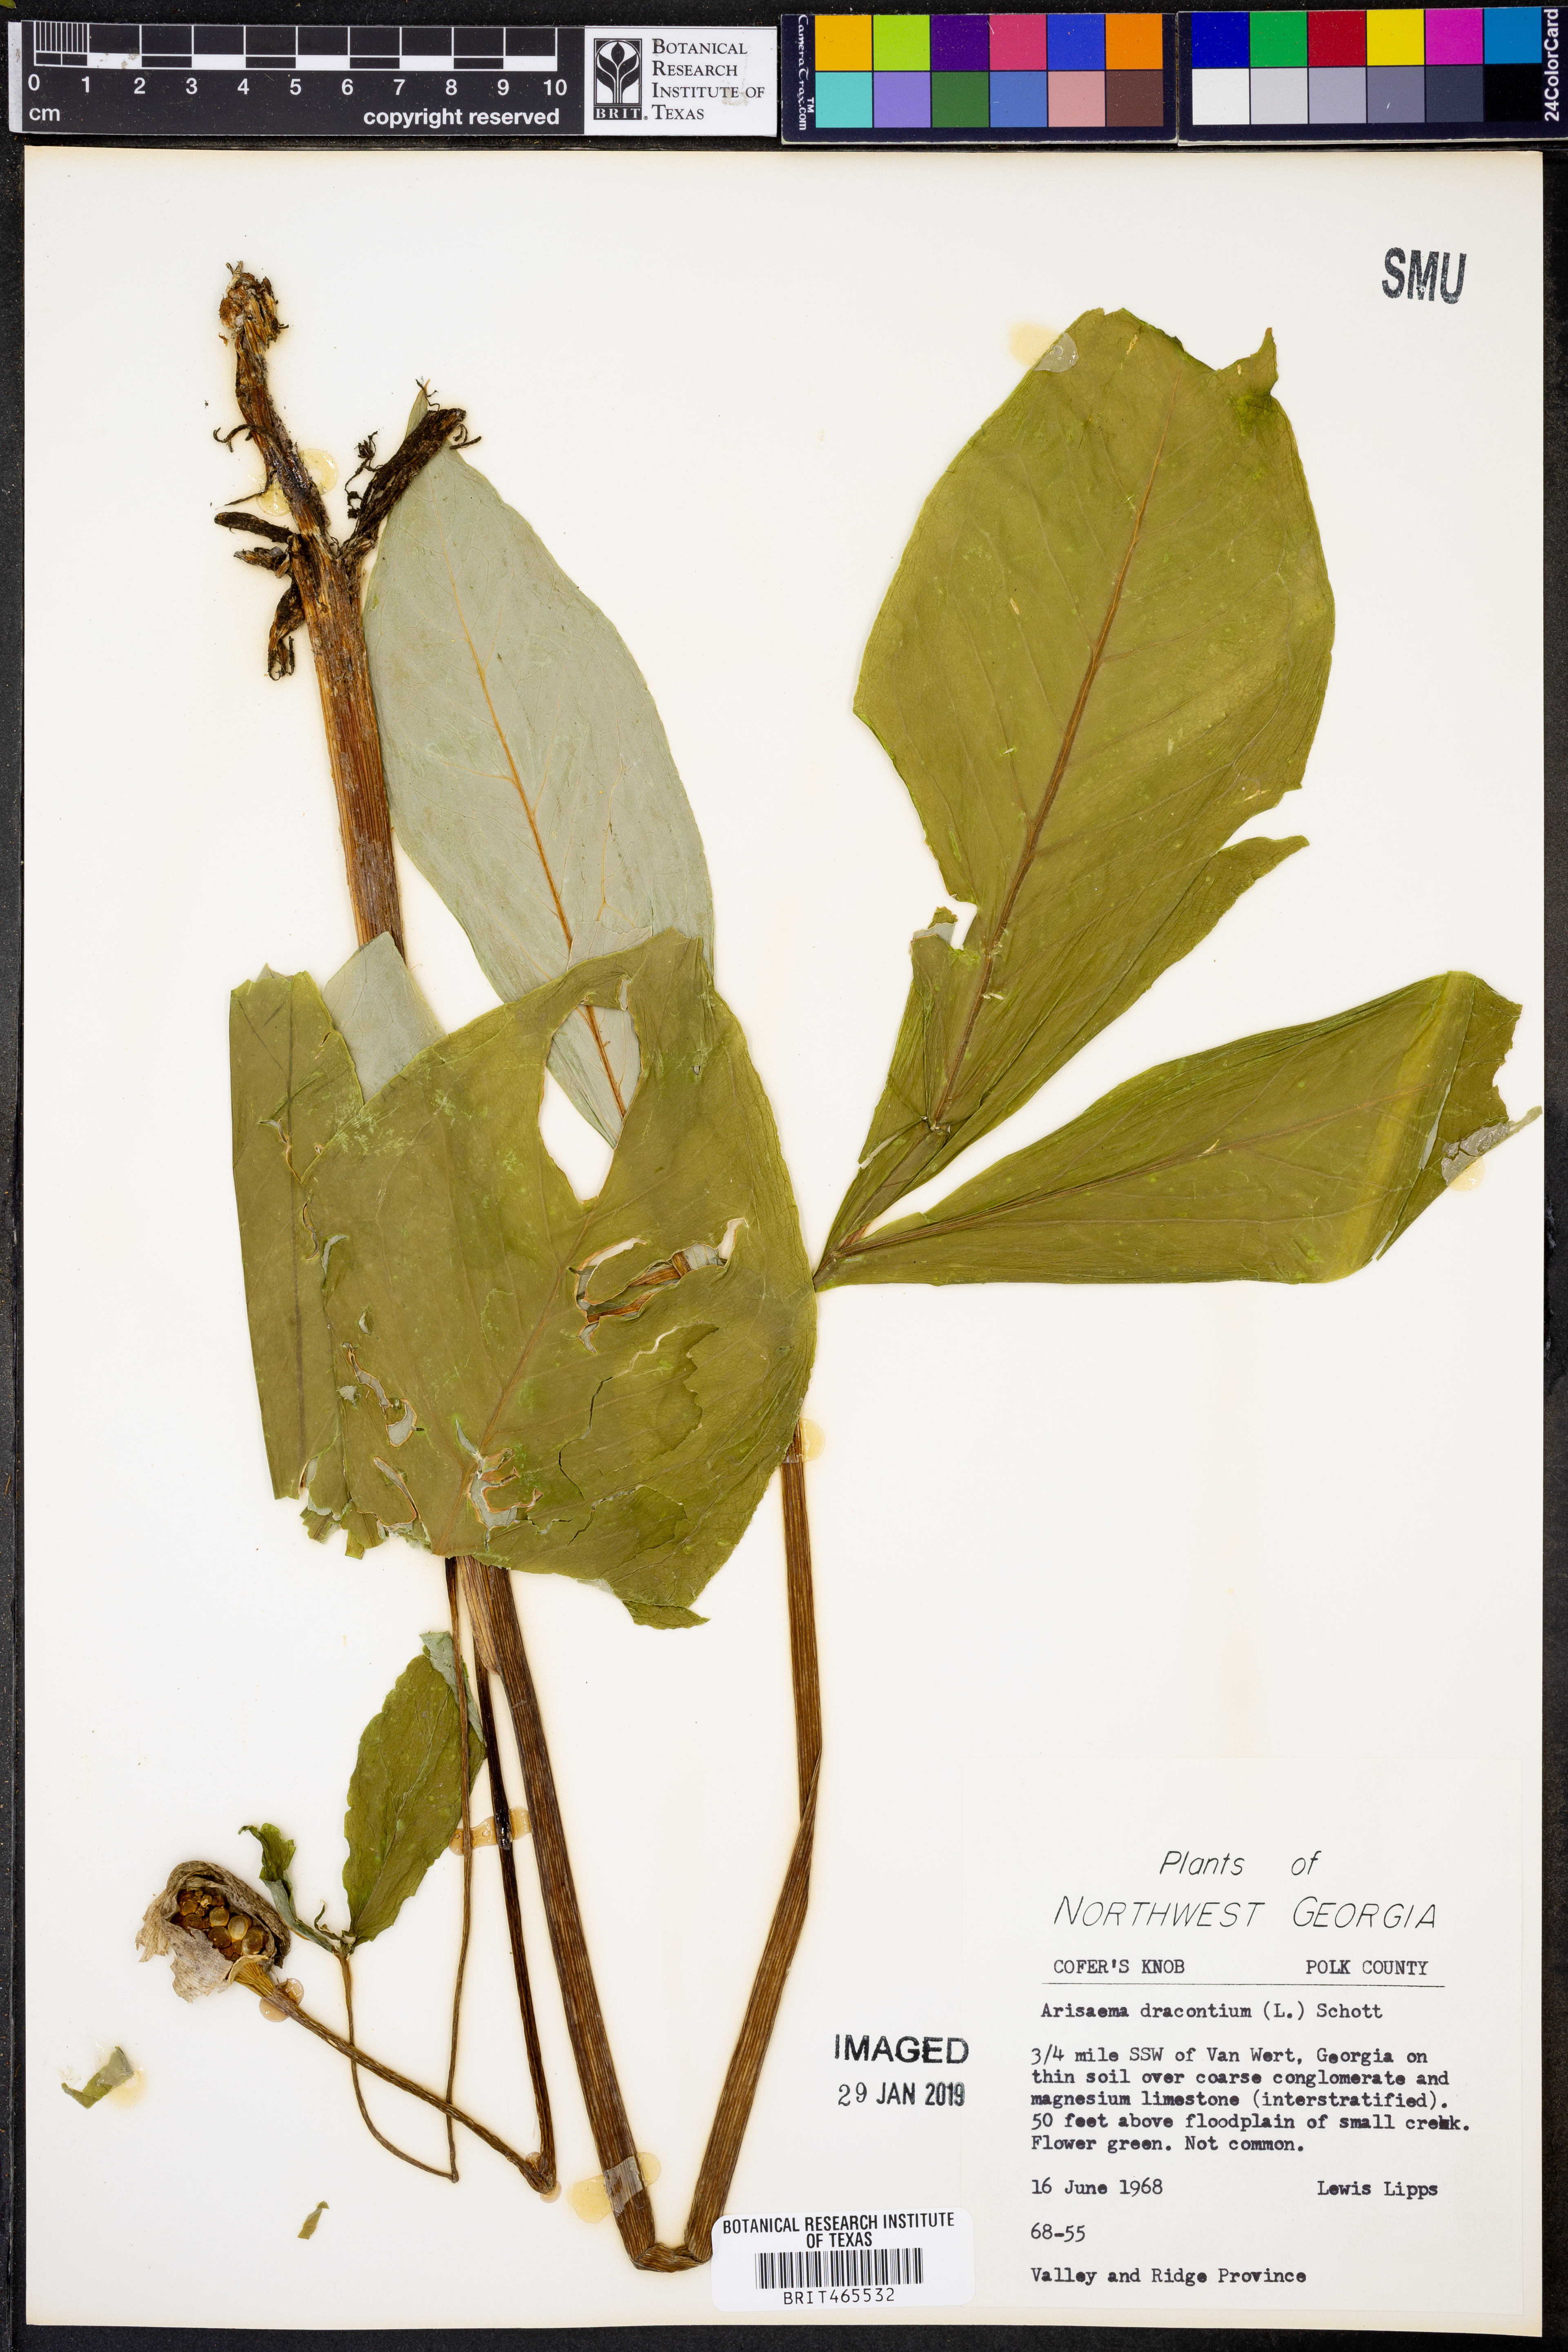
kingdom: Plantae
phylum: Tracheophyta
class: Liliopsida
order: Alismatales
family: Araceae
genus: Arisaema
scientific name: Arisaema dracontium
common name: Dragon-arum
